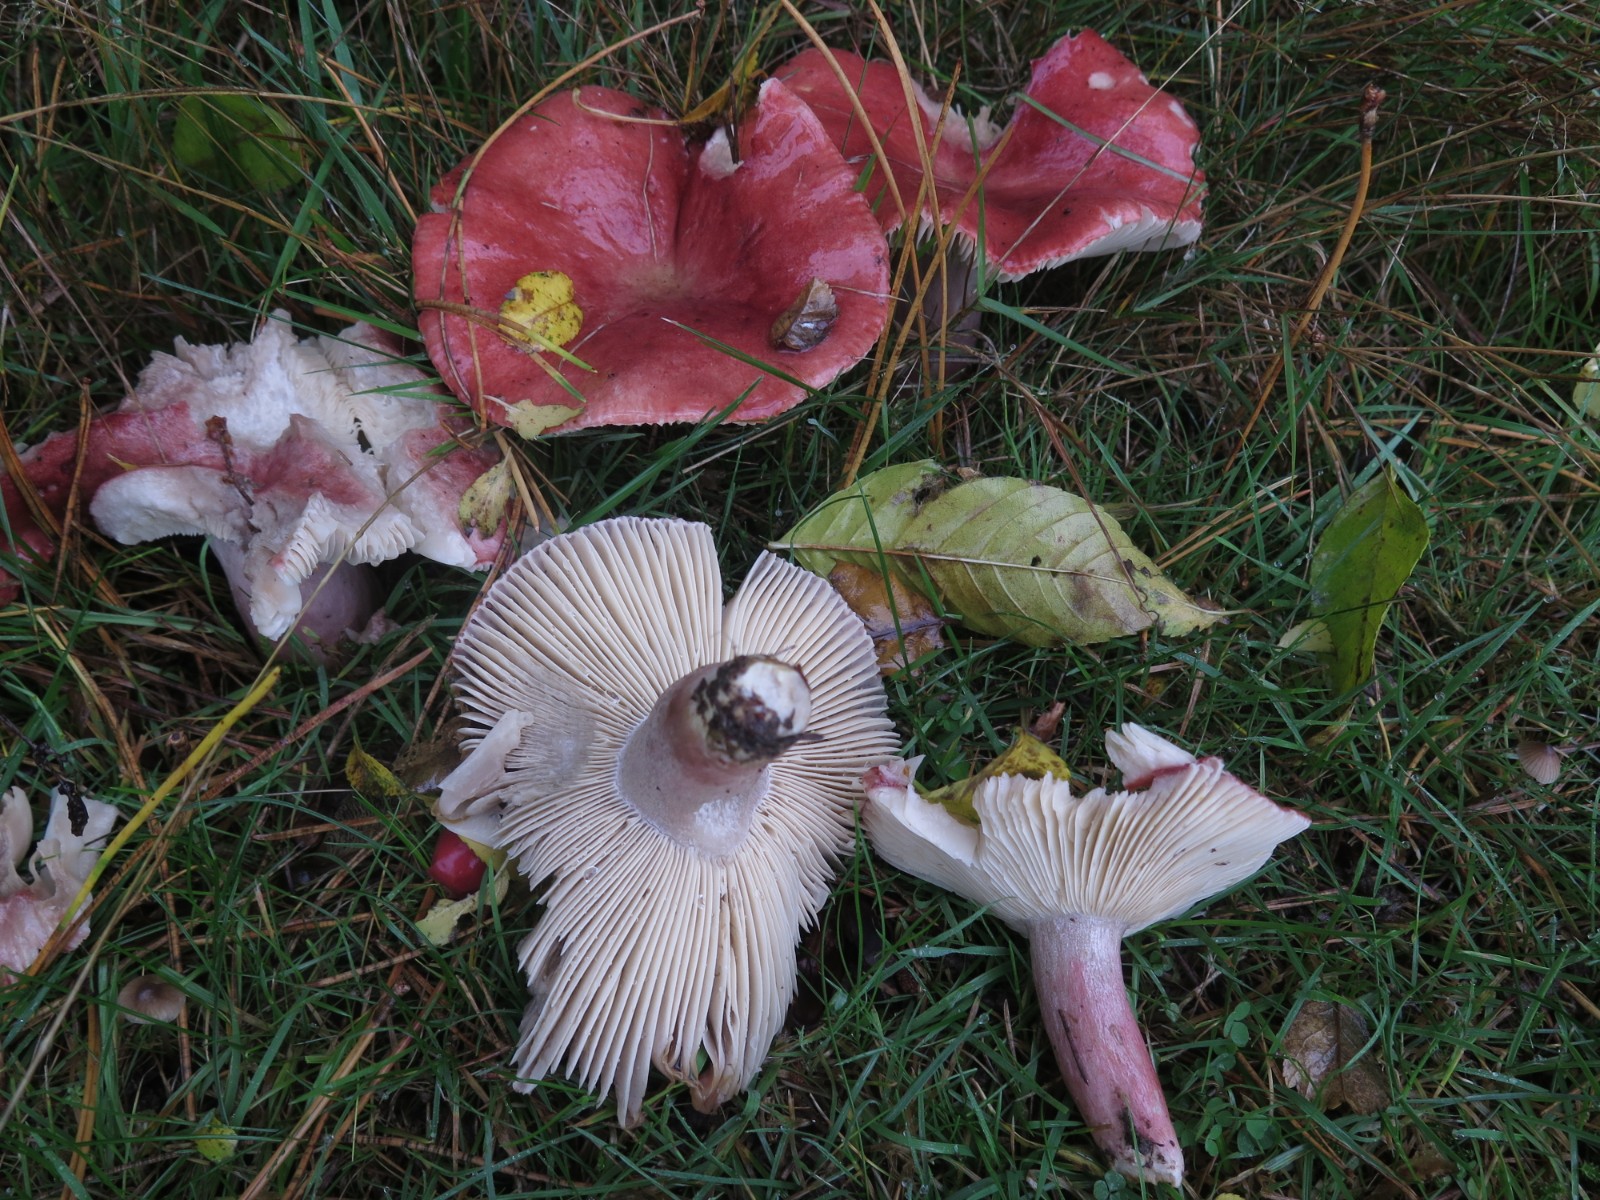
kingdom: Fungi
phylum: Basidiomycota
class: Agaricomycetes
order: Russulales
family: Russulaceae
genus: Russula
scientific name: Russula rosea
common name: fastkødet skørhat
